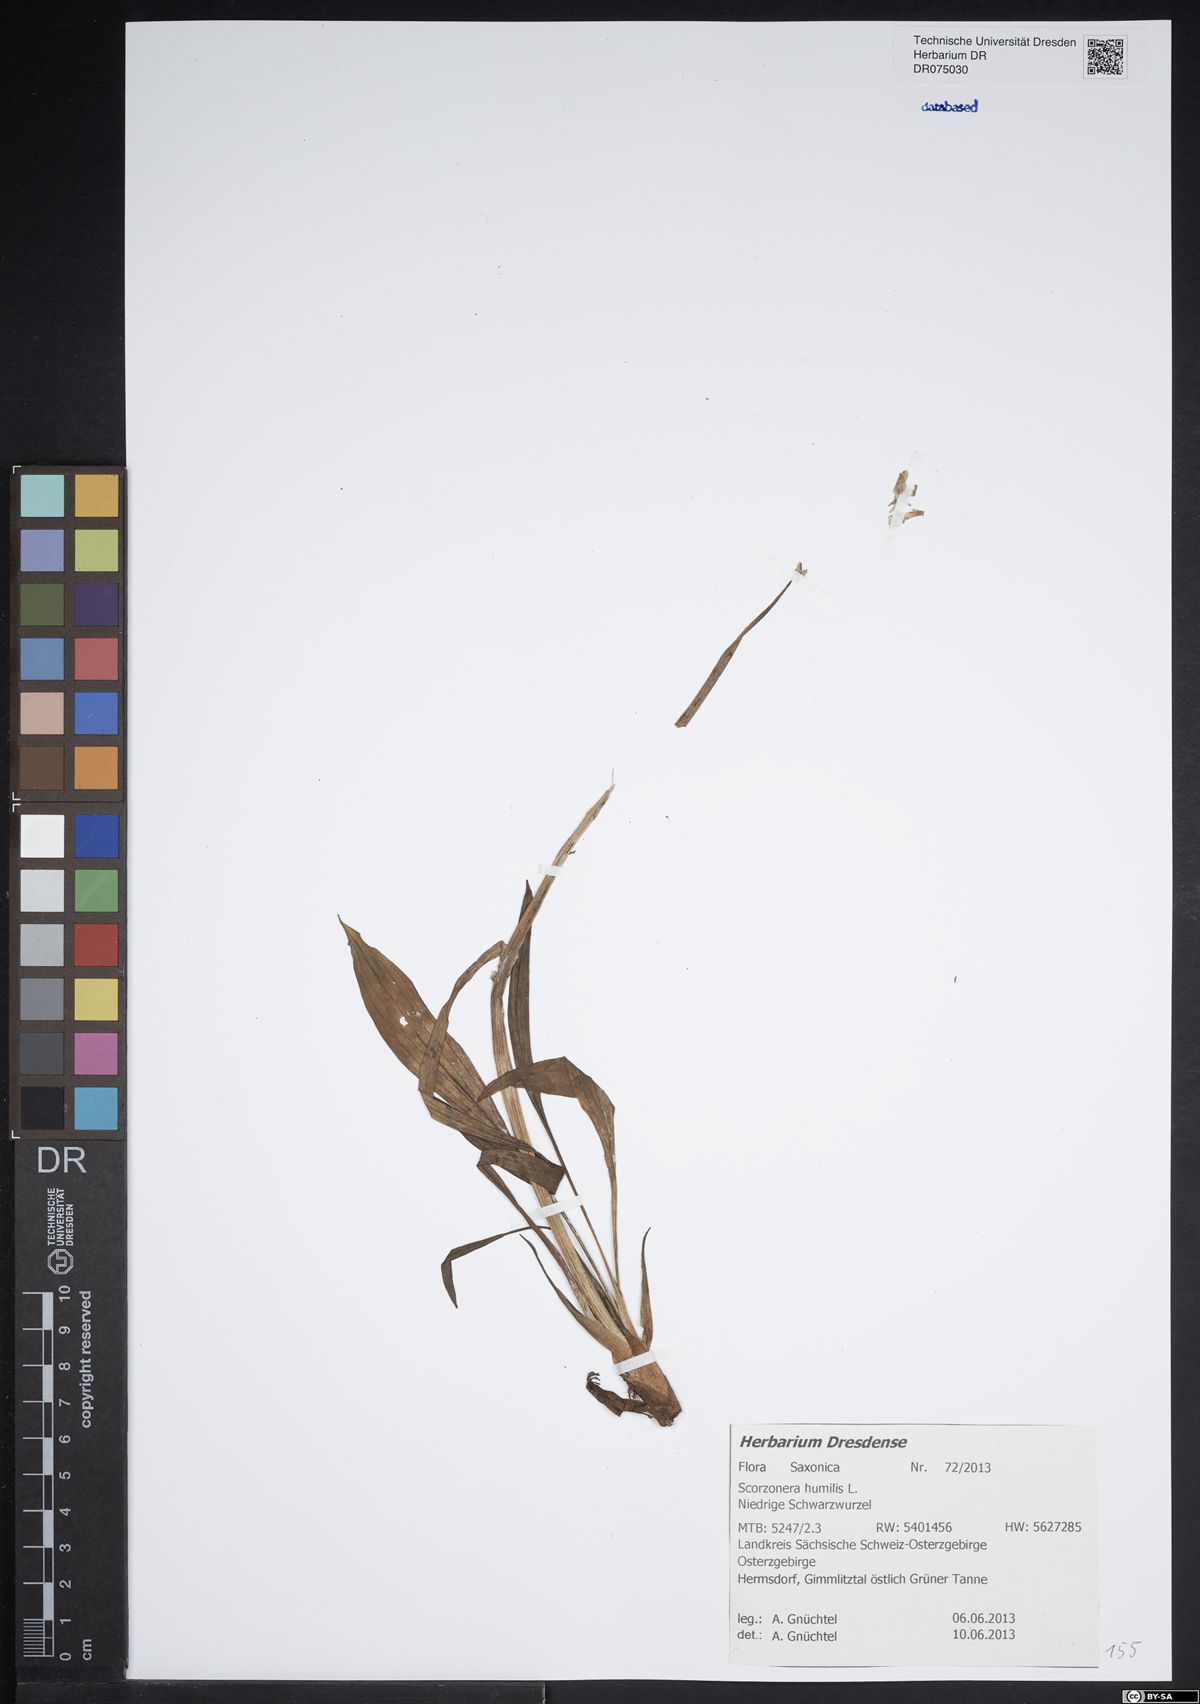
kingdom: Plantae
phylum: Tracheophyta
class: Magnoliopsida
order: Asterales
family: Asteraceae
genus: Scorzonera
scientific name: Scorzonera humilis
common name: Viper's-grass
